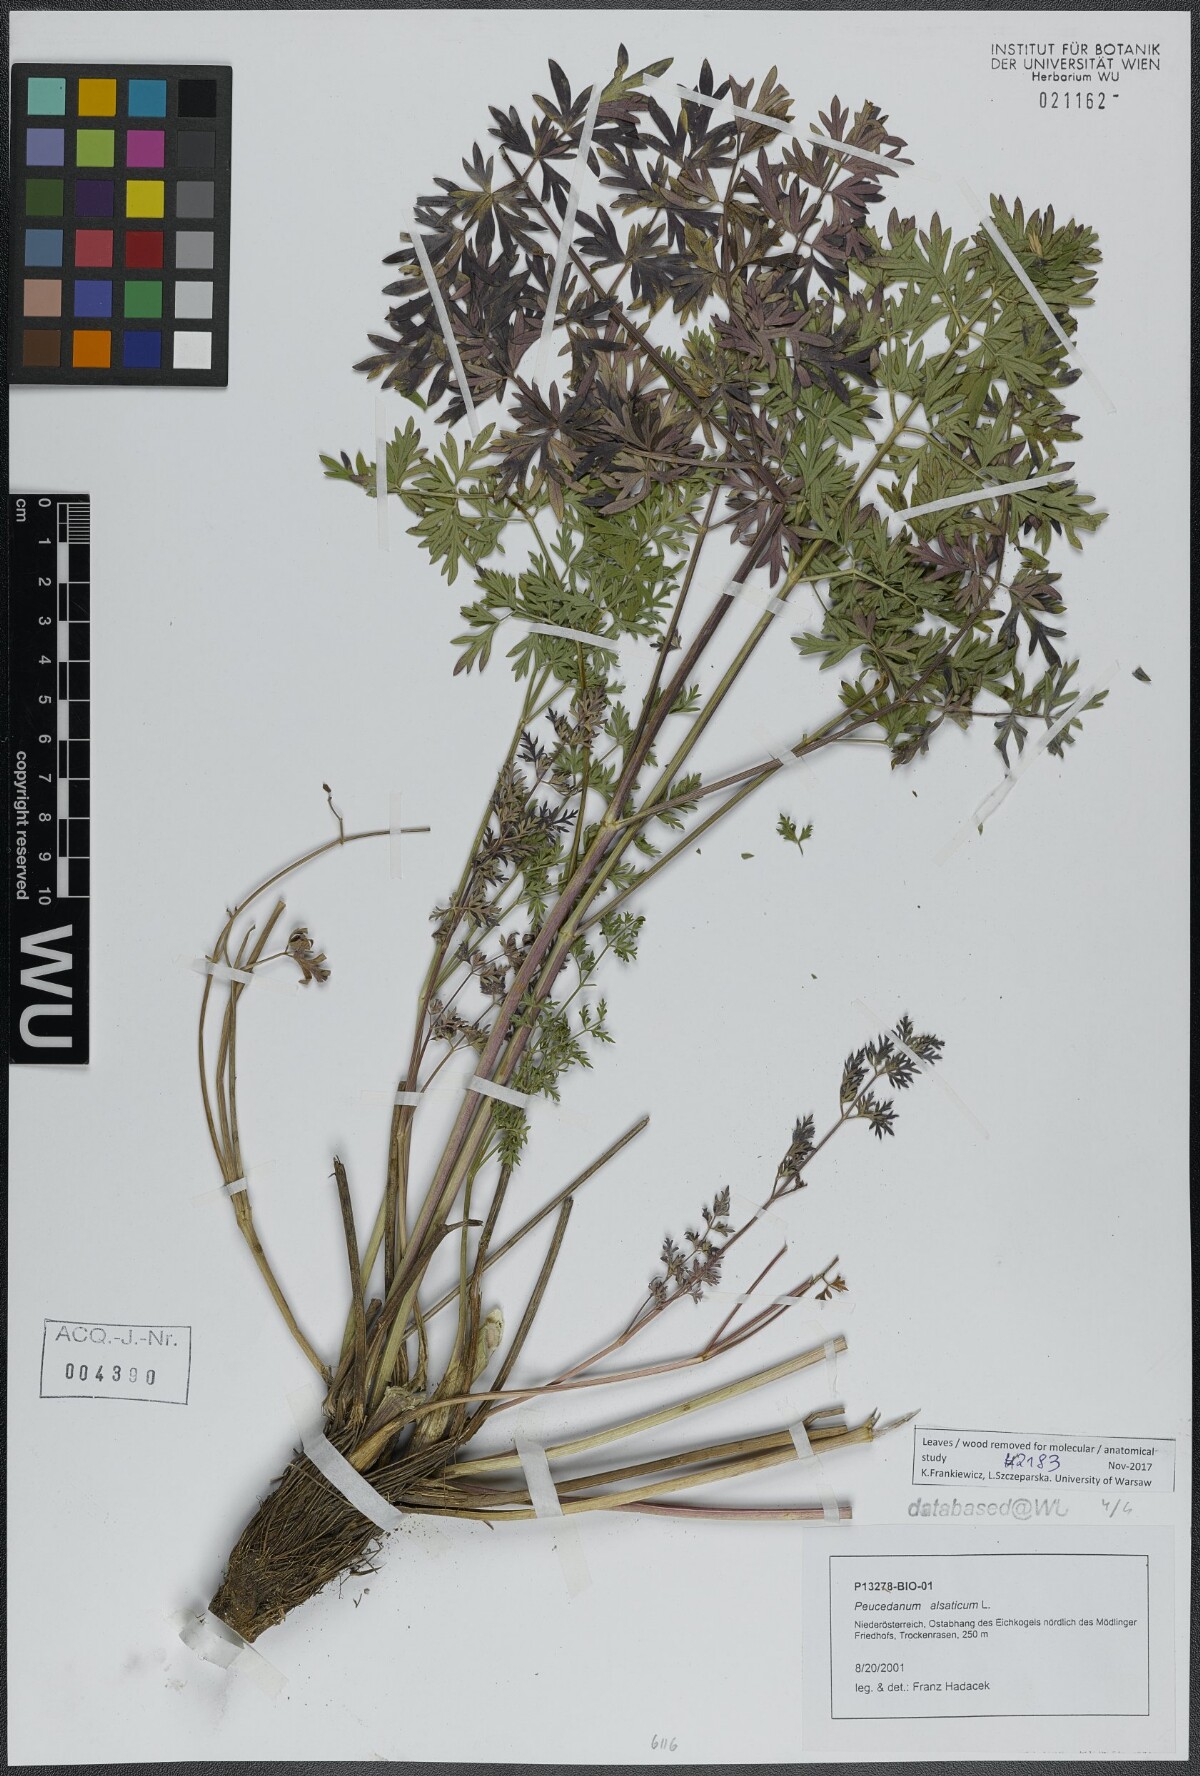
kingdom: Plantae
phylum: Tracheophyta
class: Magnoliopsida
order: Apiales
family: Apiaceae
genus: Xanthoselinum
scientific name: Xanthoselinum alsaticum
